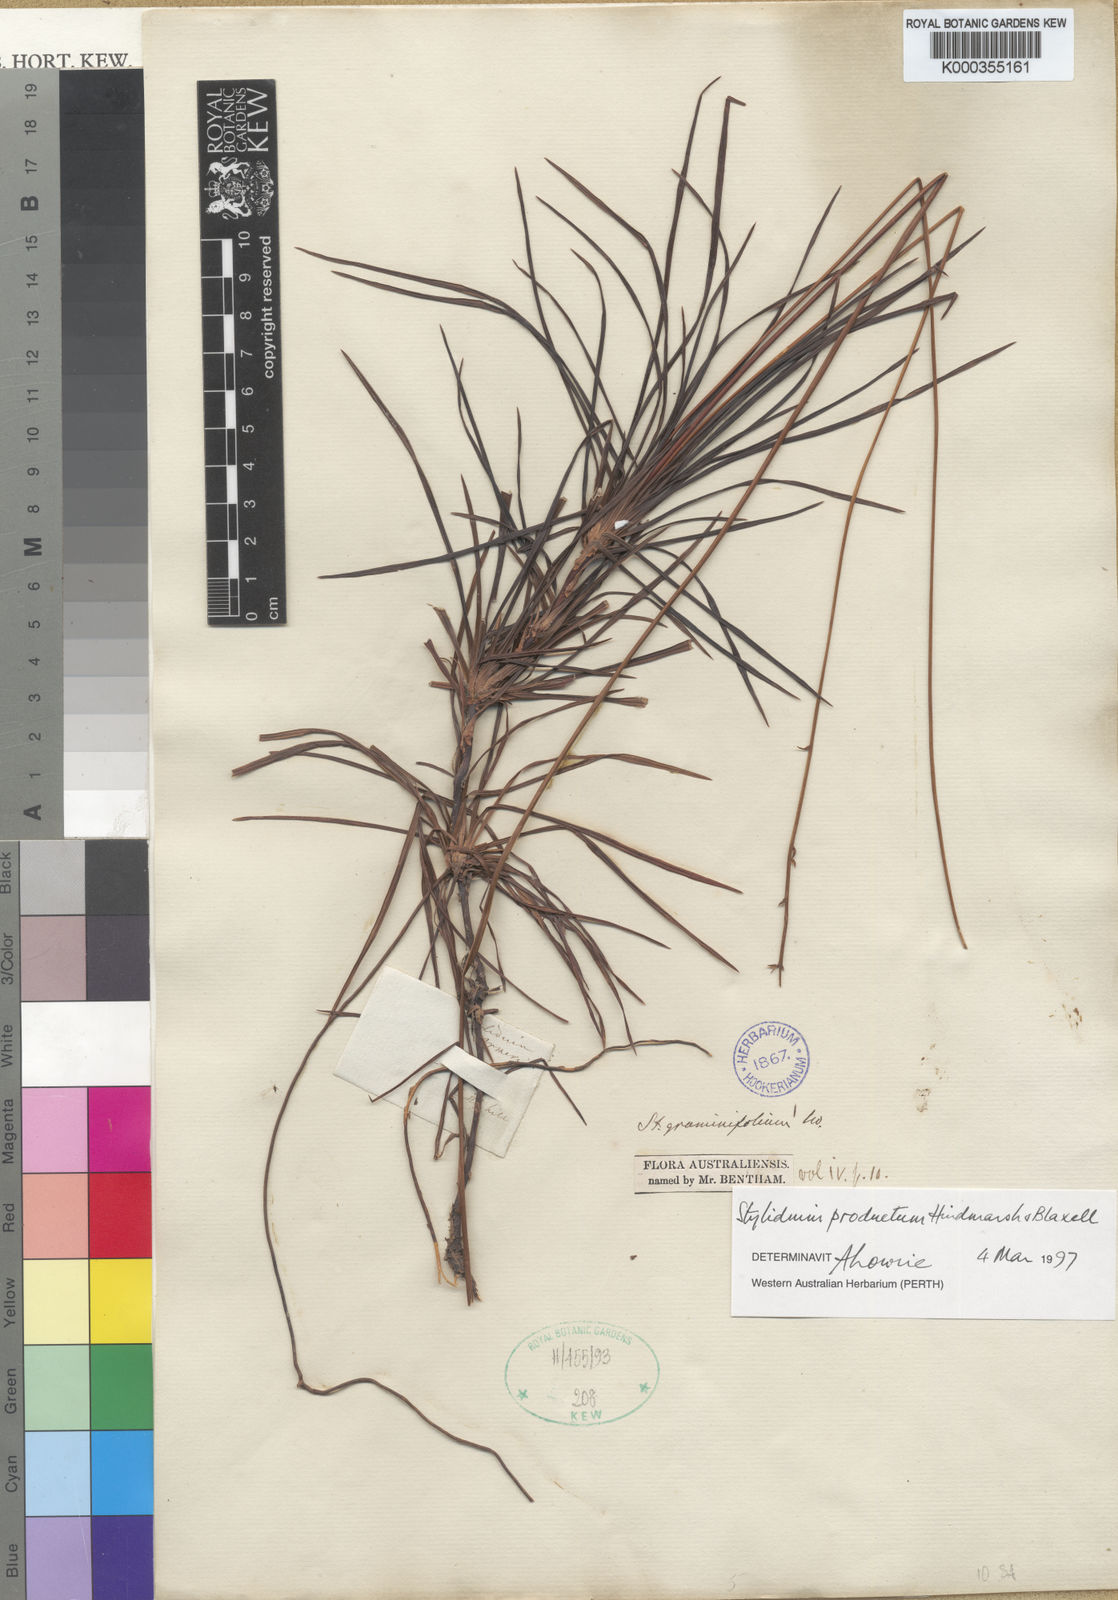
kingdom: Plantae
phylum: Tracheophyta
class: Magnoliopsida
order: Asterales
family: Stylidiaceae
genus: Stylidium
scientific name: Stylidium productum
